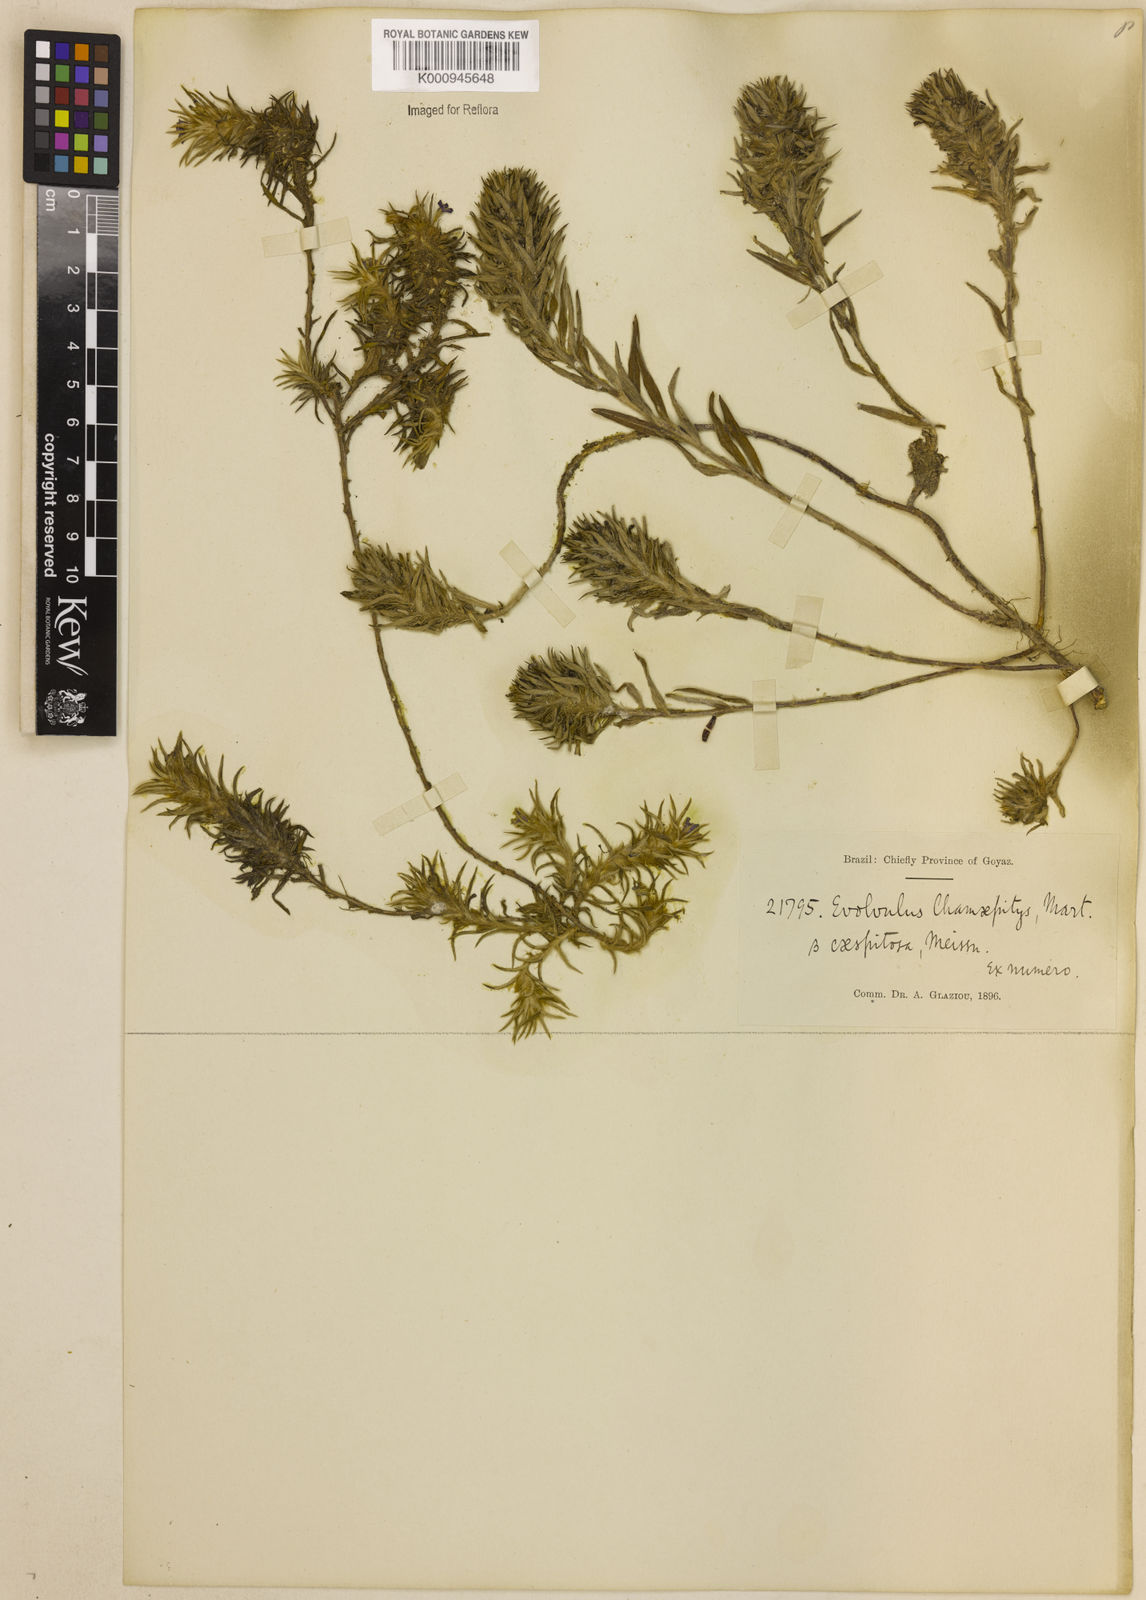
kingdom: Plantae
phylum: Tracheophyta
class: Magnoliopsida
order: Solanales
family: Convolvulaceae
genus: Evolvulus
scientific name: Evolvulus chamaepitys
